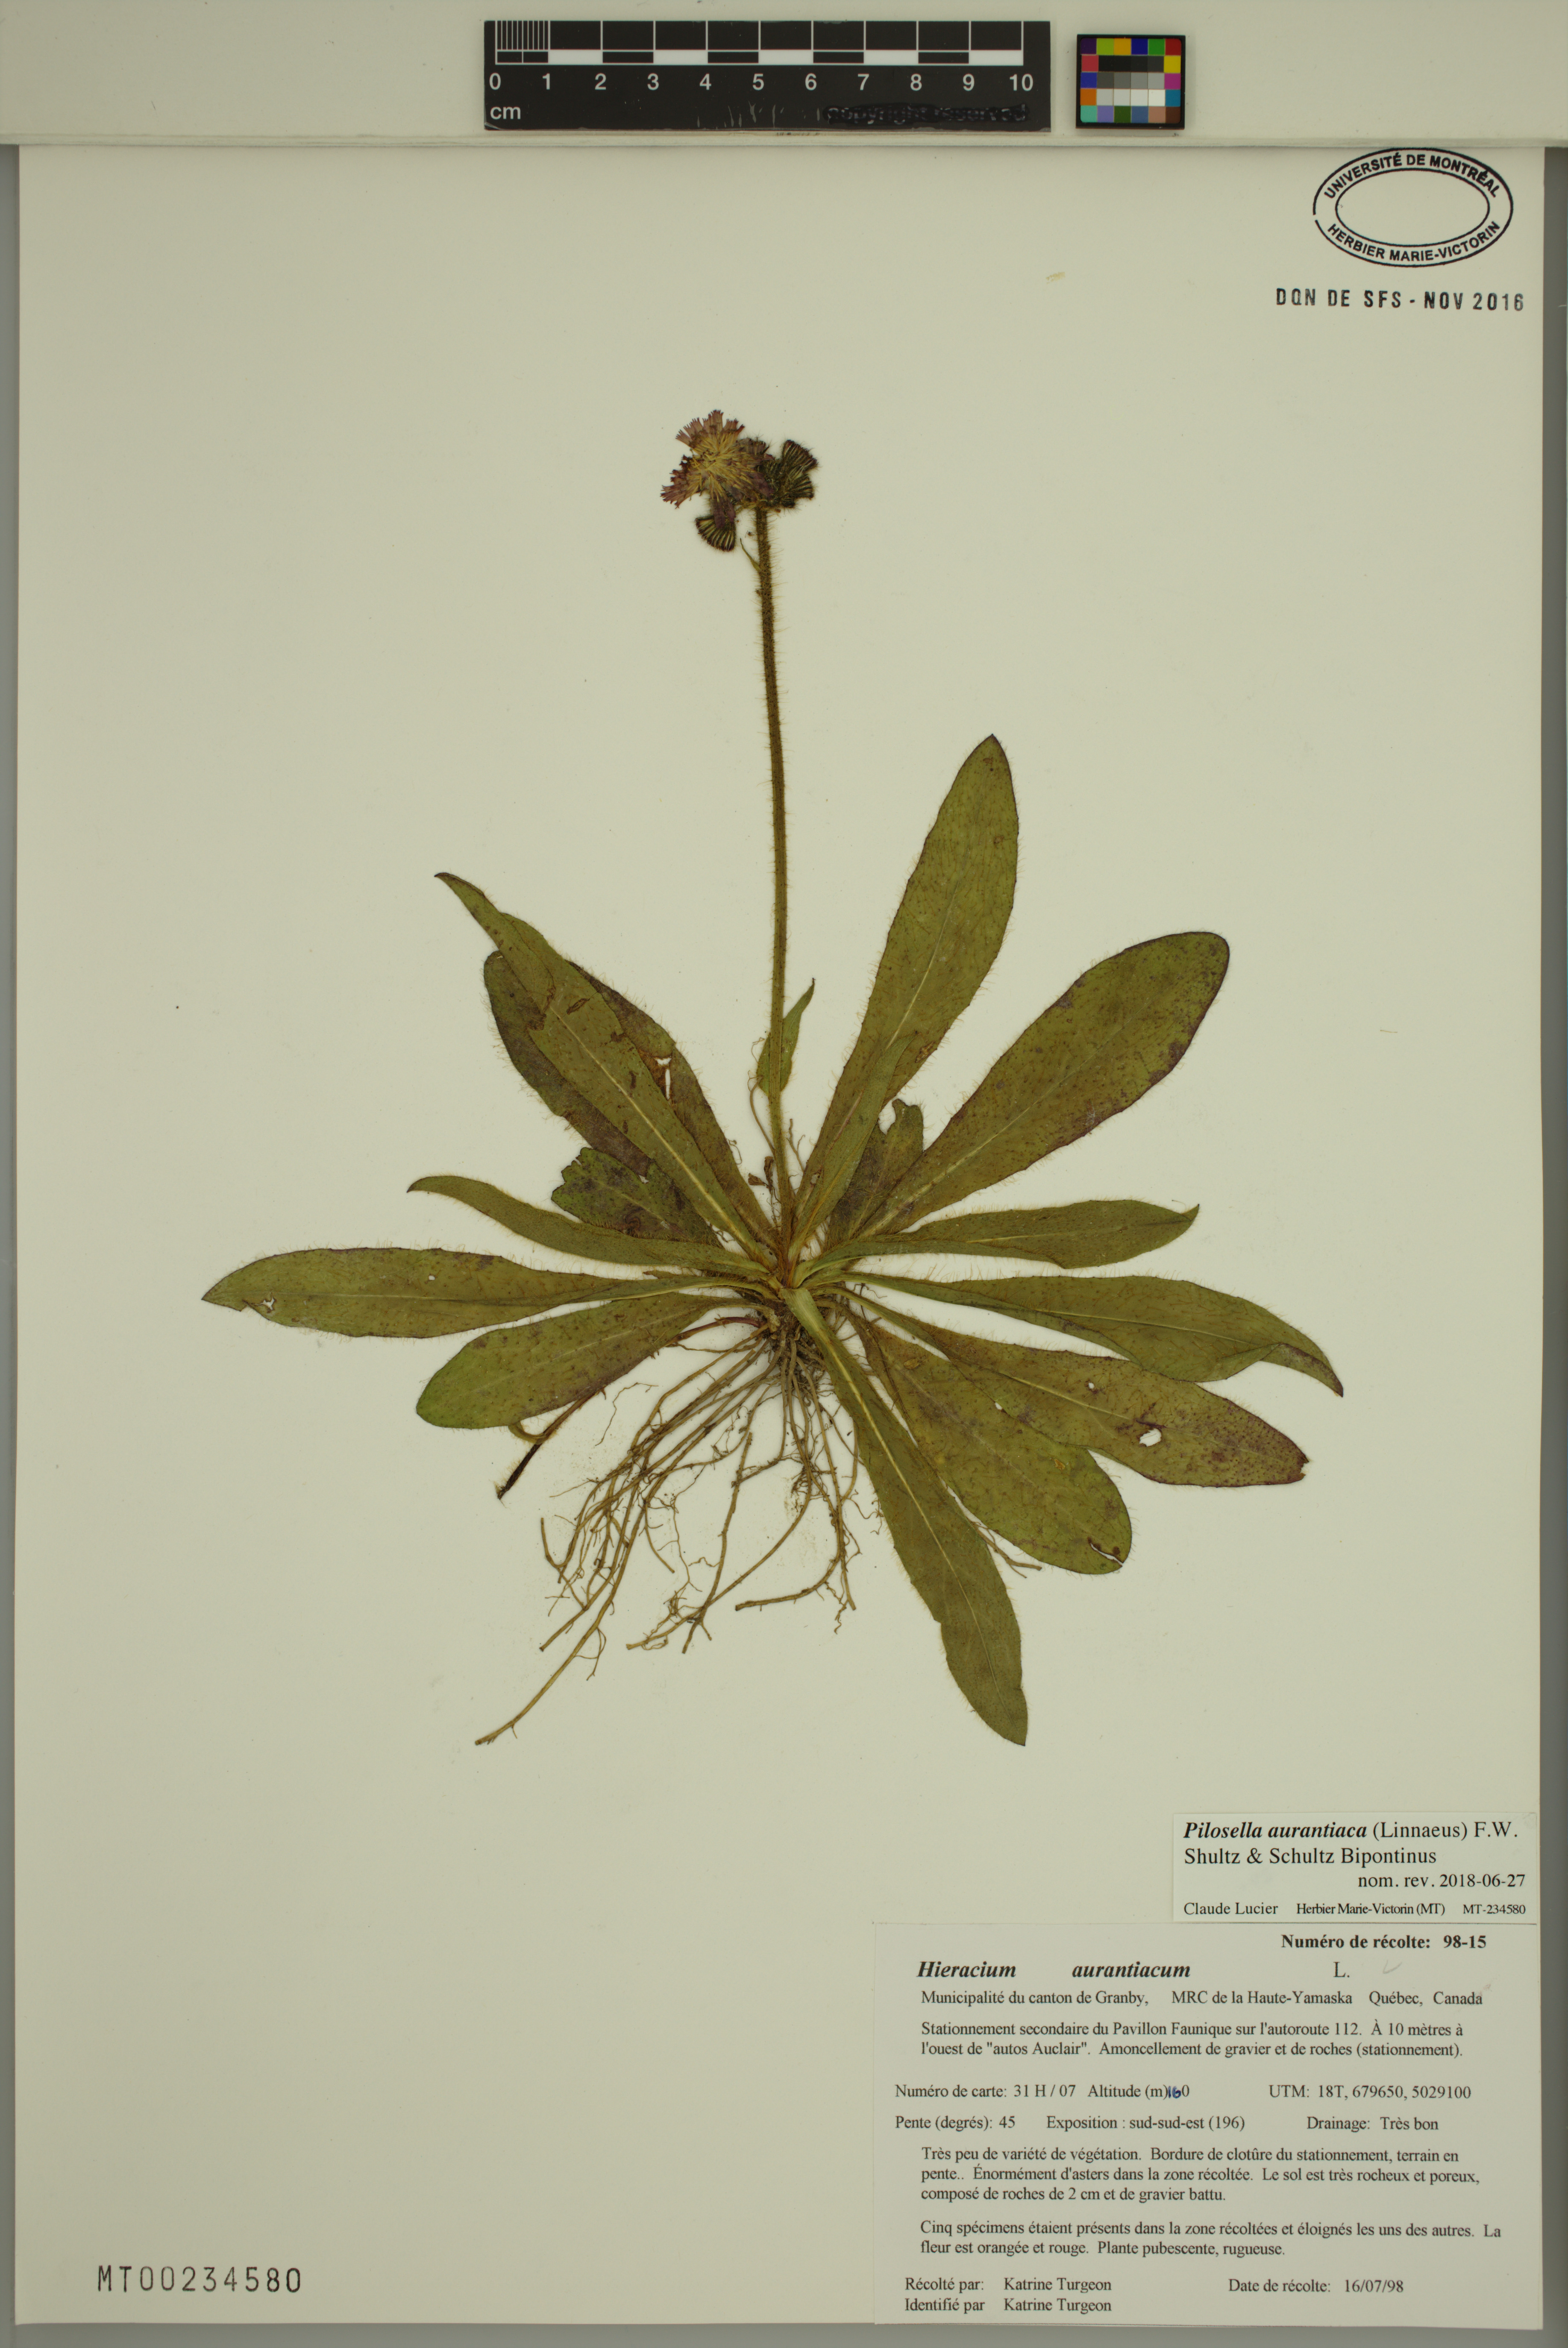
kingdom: Plantae
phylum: Tracheophyta
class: Magnoliopsida
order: Asterales
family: Asteraceae
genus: Pilosella
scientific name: Pilosella aurantiaca
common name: Fox-and-cubs
